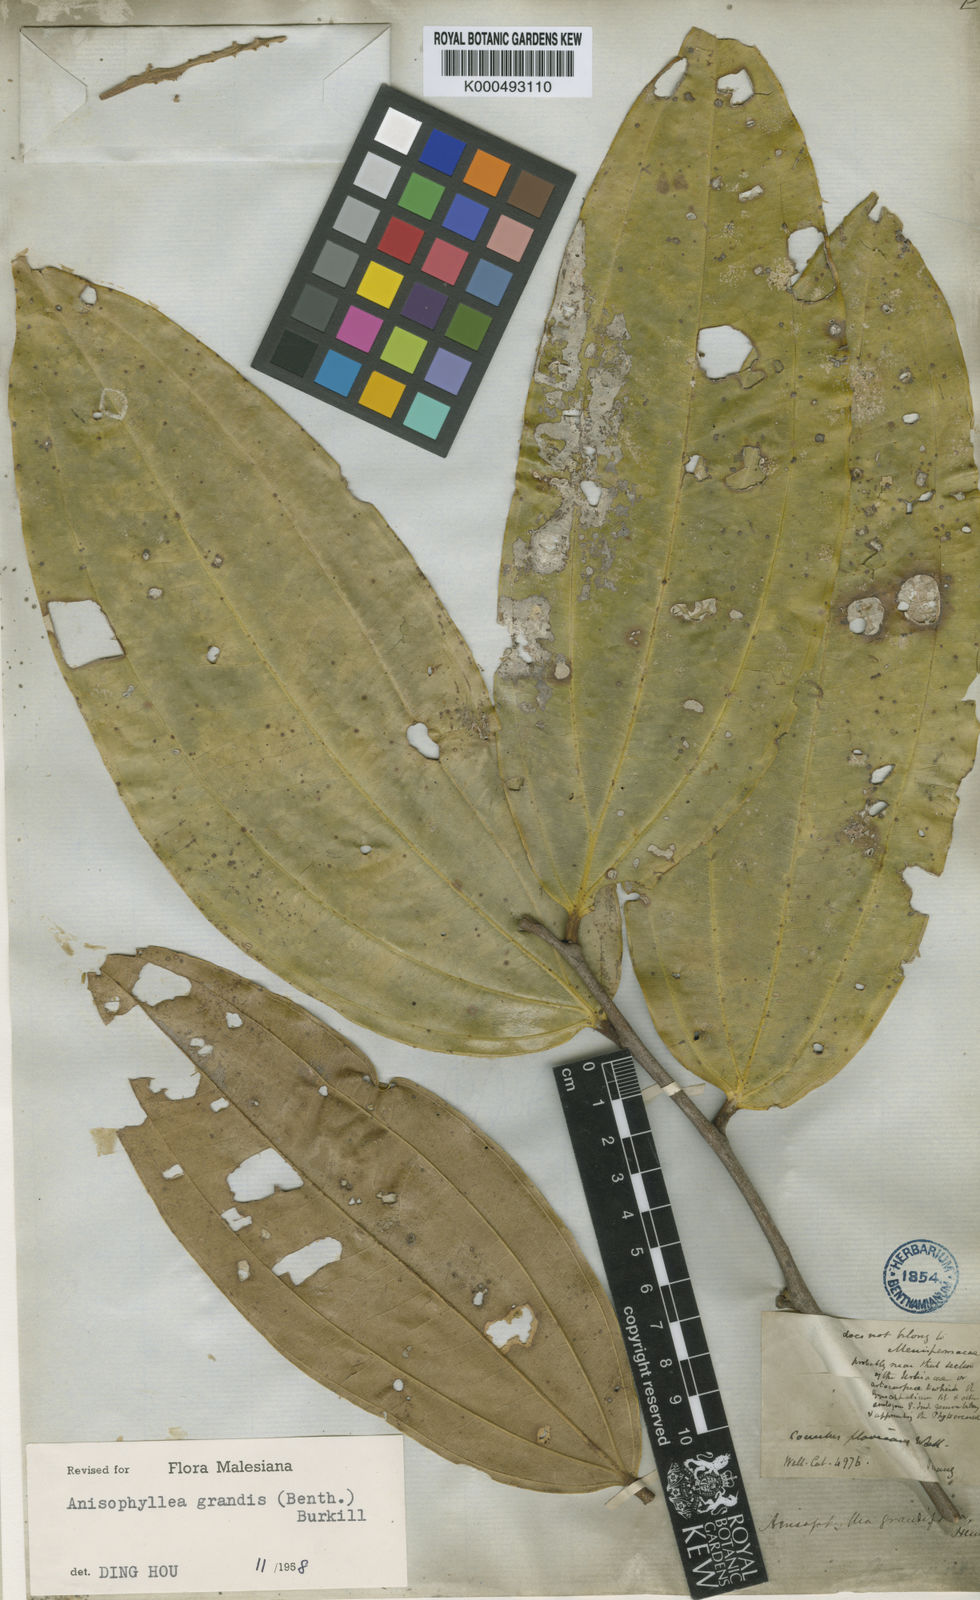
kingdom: Plantae
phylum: Tracheophyta
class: Magnoliopsida
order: Cucurbitales
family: Anisophylleaceae
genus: Anisophyllea
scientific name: Anisophyllea
